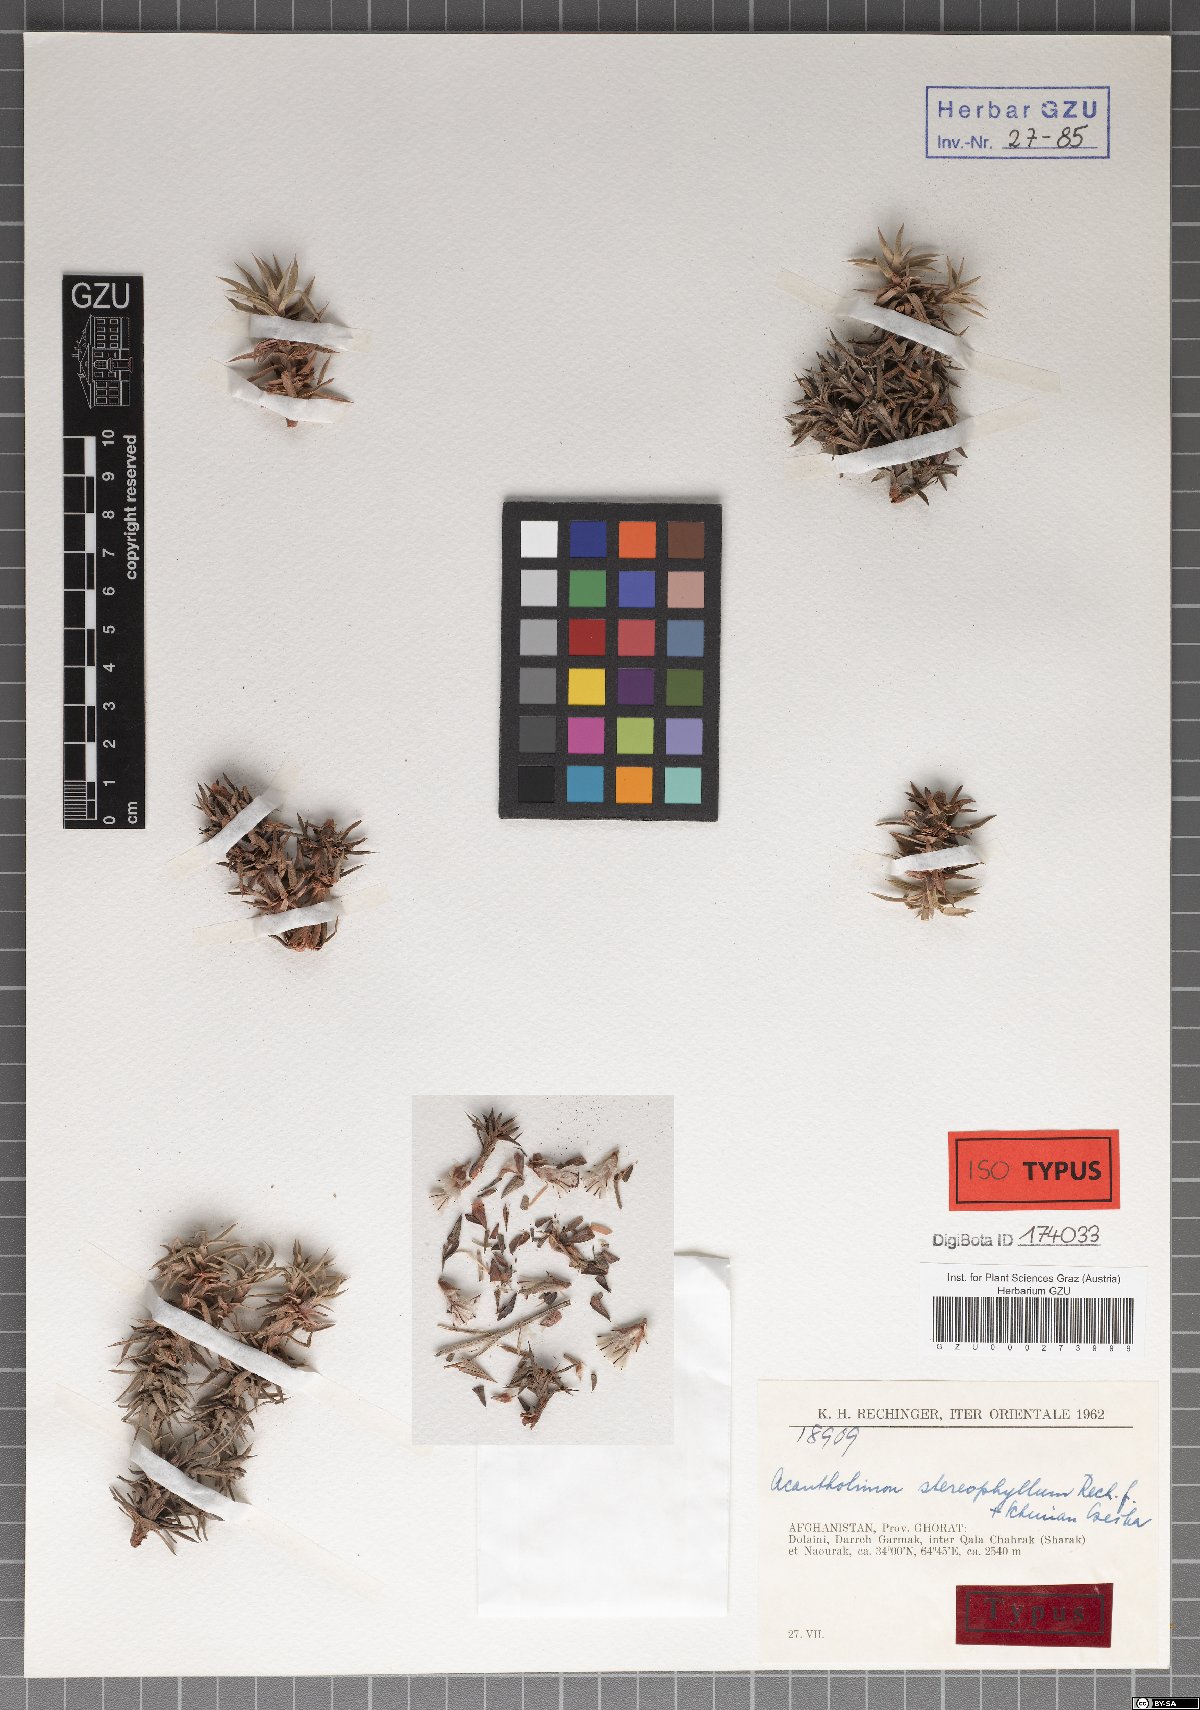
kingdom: Plantae
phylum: Tracheophyta
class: Magnoliopsida
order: Caryophyllales
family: Plumbaginaceae
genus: Acantholimon
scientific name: Acantholimon stereophyllum
